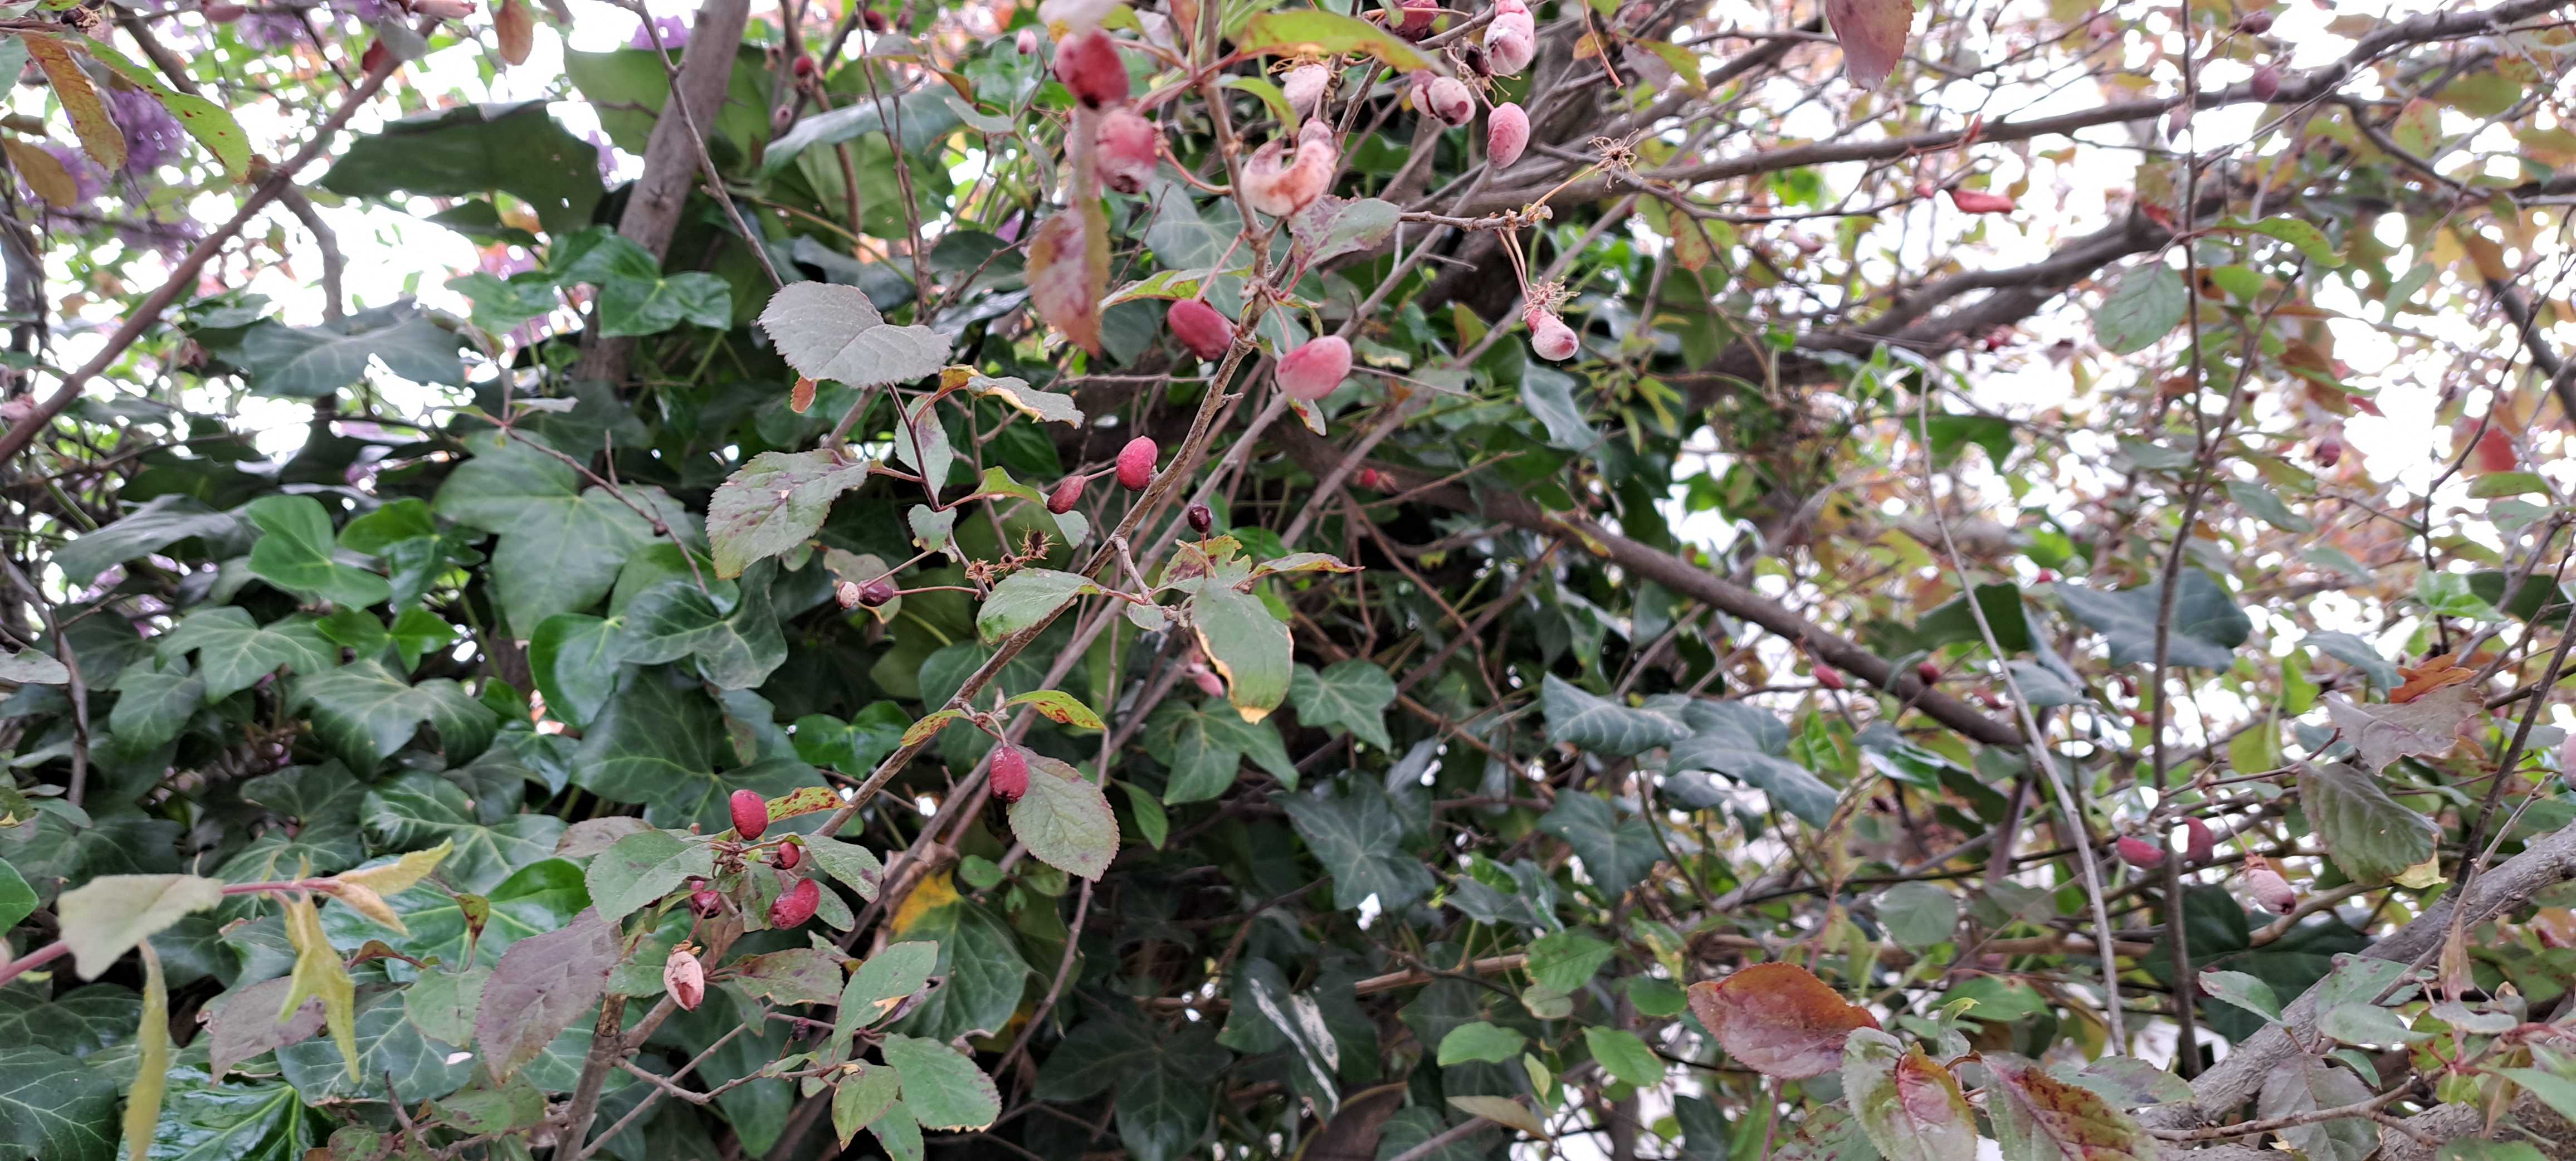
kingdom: Fungi
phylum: Ascomycota
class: Taphrinomycetes
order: Taphrinales
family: Taphrinaceae
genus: Taphrina
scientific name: Taphrina pruni
